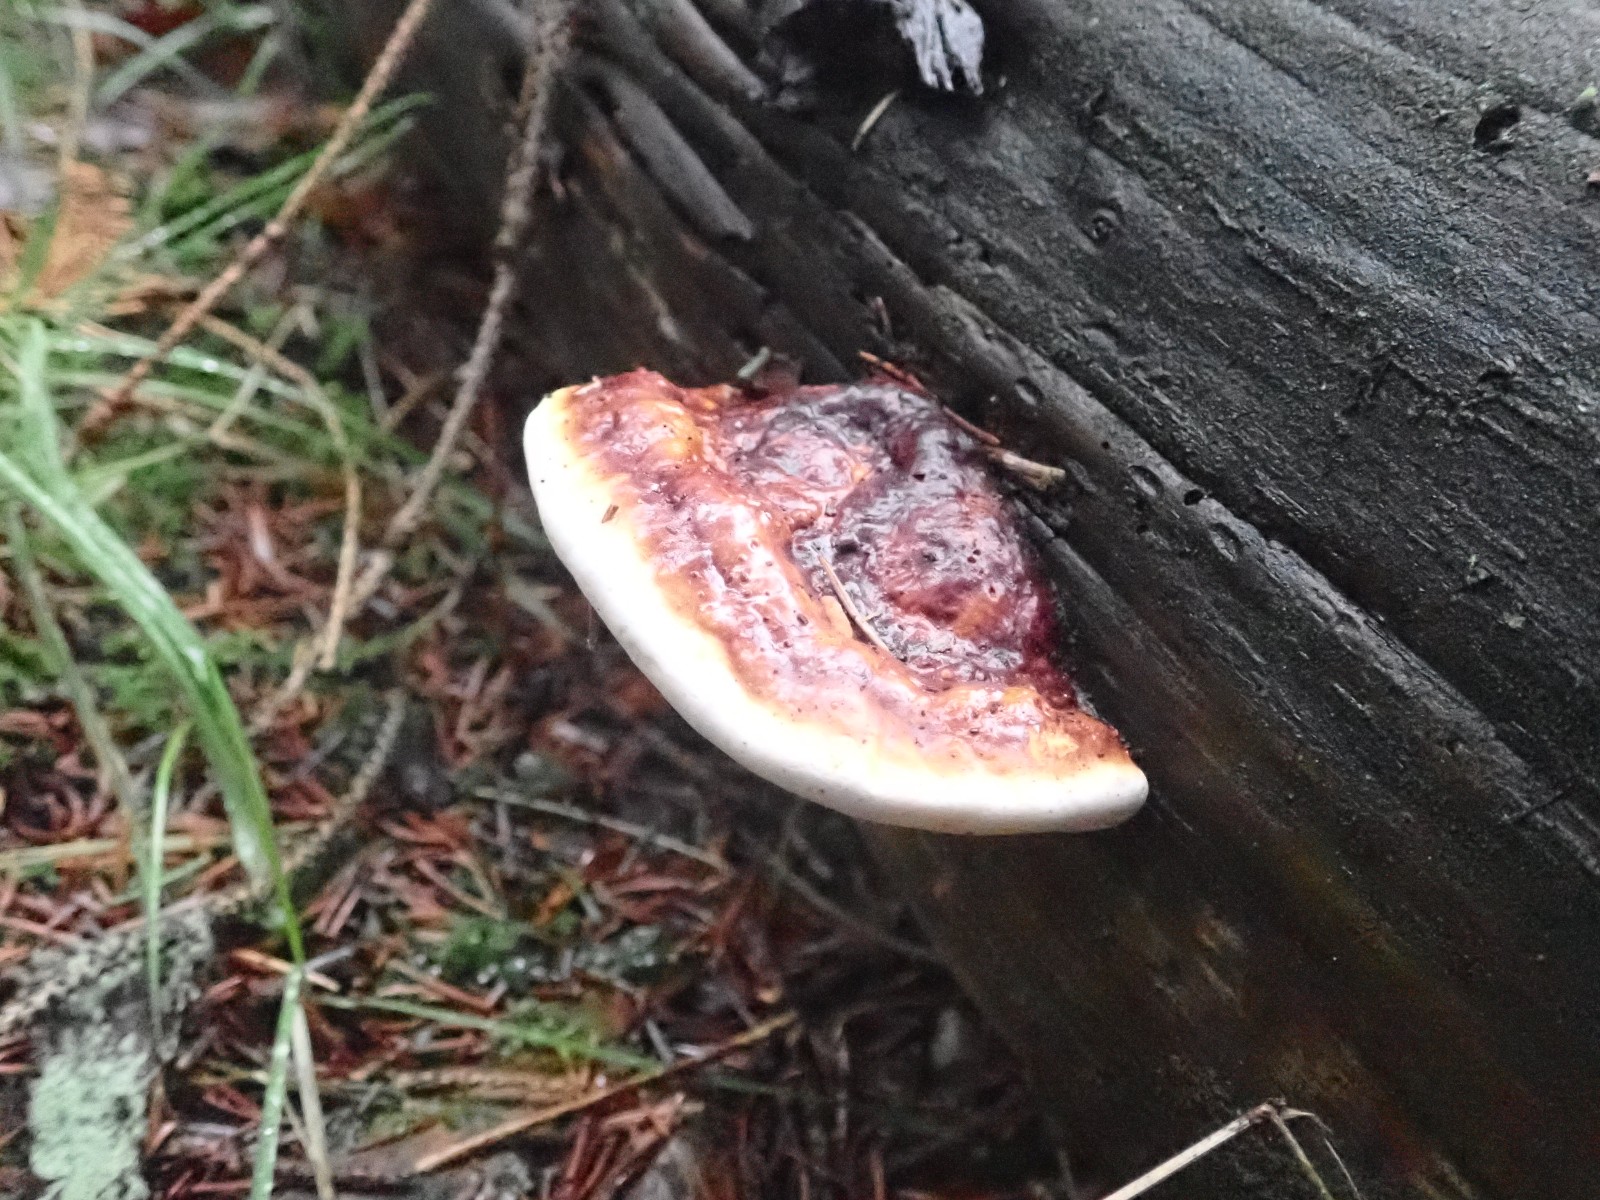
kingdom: Fungi
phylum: Basidiomycota
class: Agaricomycetes
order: Polyporales
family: Fomitopsidaceae
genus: Fomitopsis
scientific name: Fomitopsis pinicola
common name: randbæltet hovporesvamp
